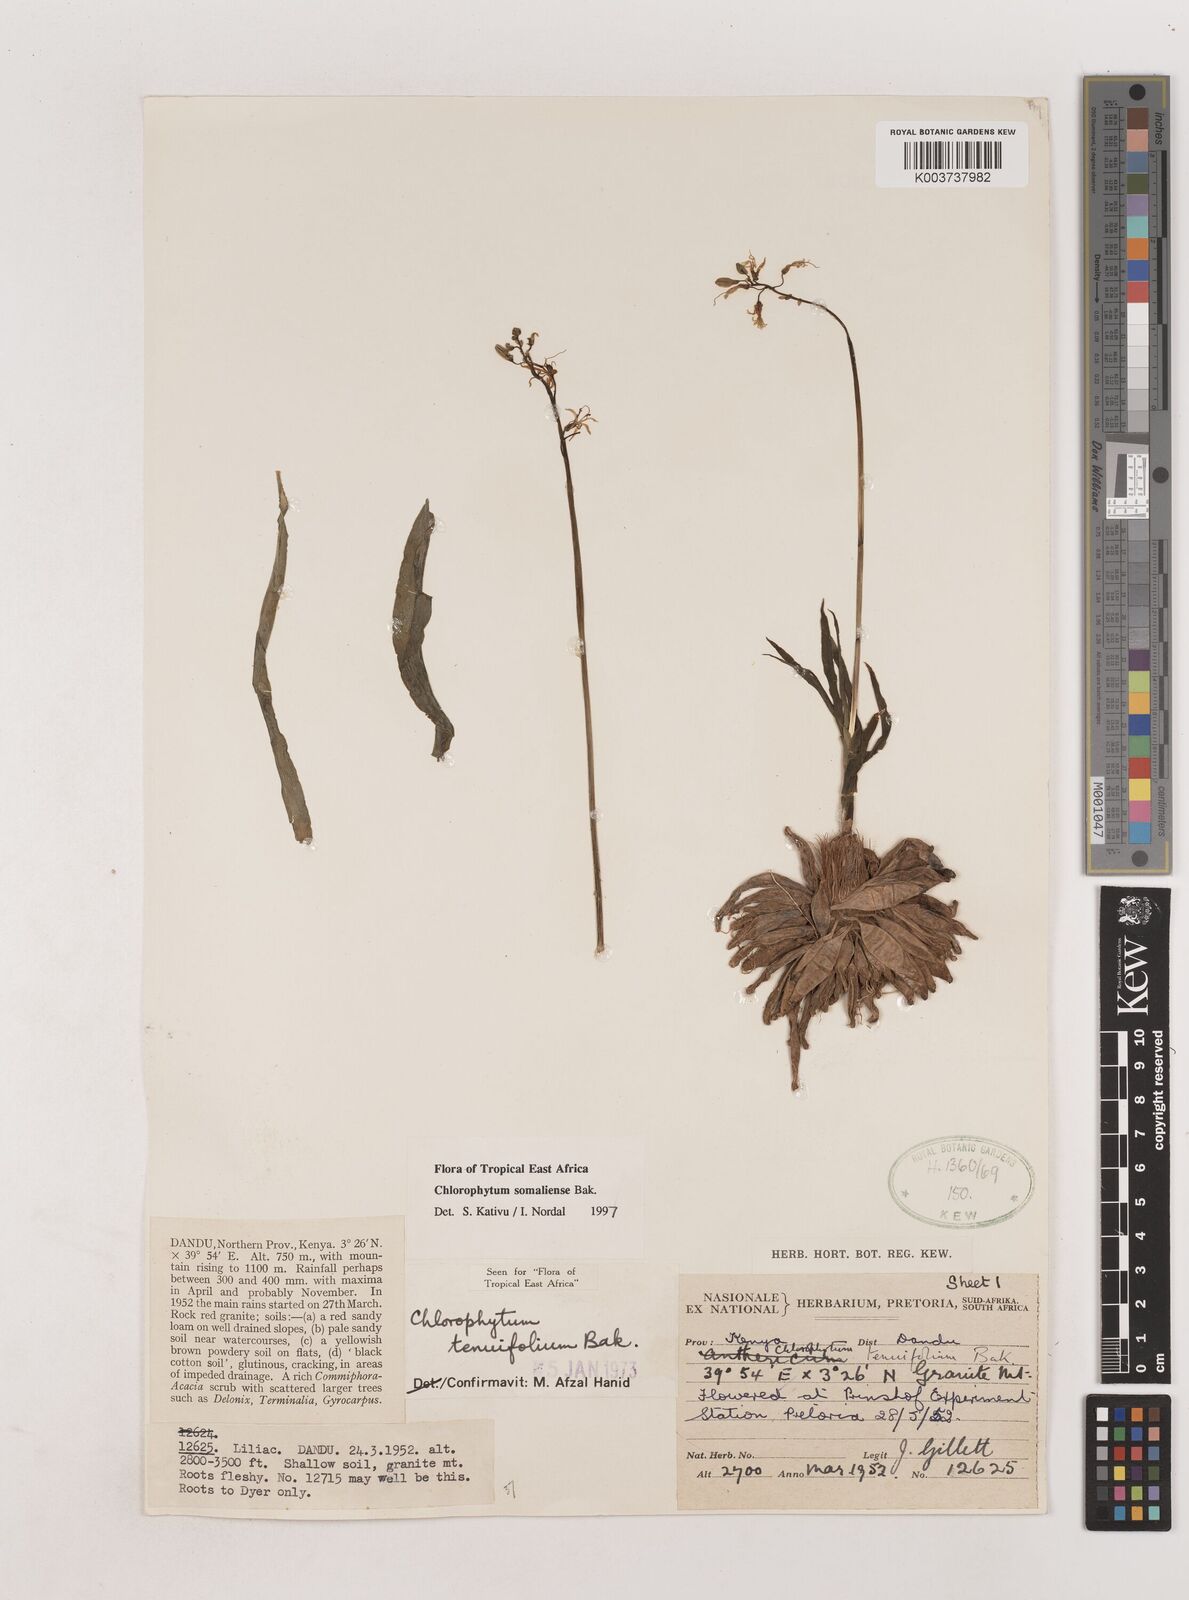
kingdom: Plantae
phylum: Tracheophyta
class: Liliopsida
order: Asparagales
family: Asparagaceae
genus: Chlorophytum
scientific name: Chlorophytum somaliense
